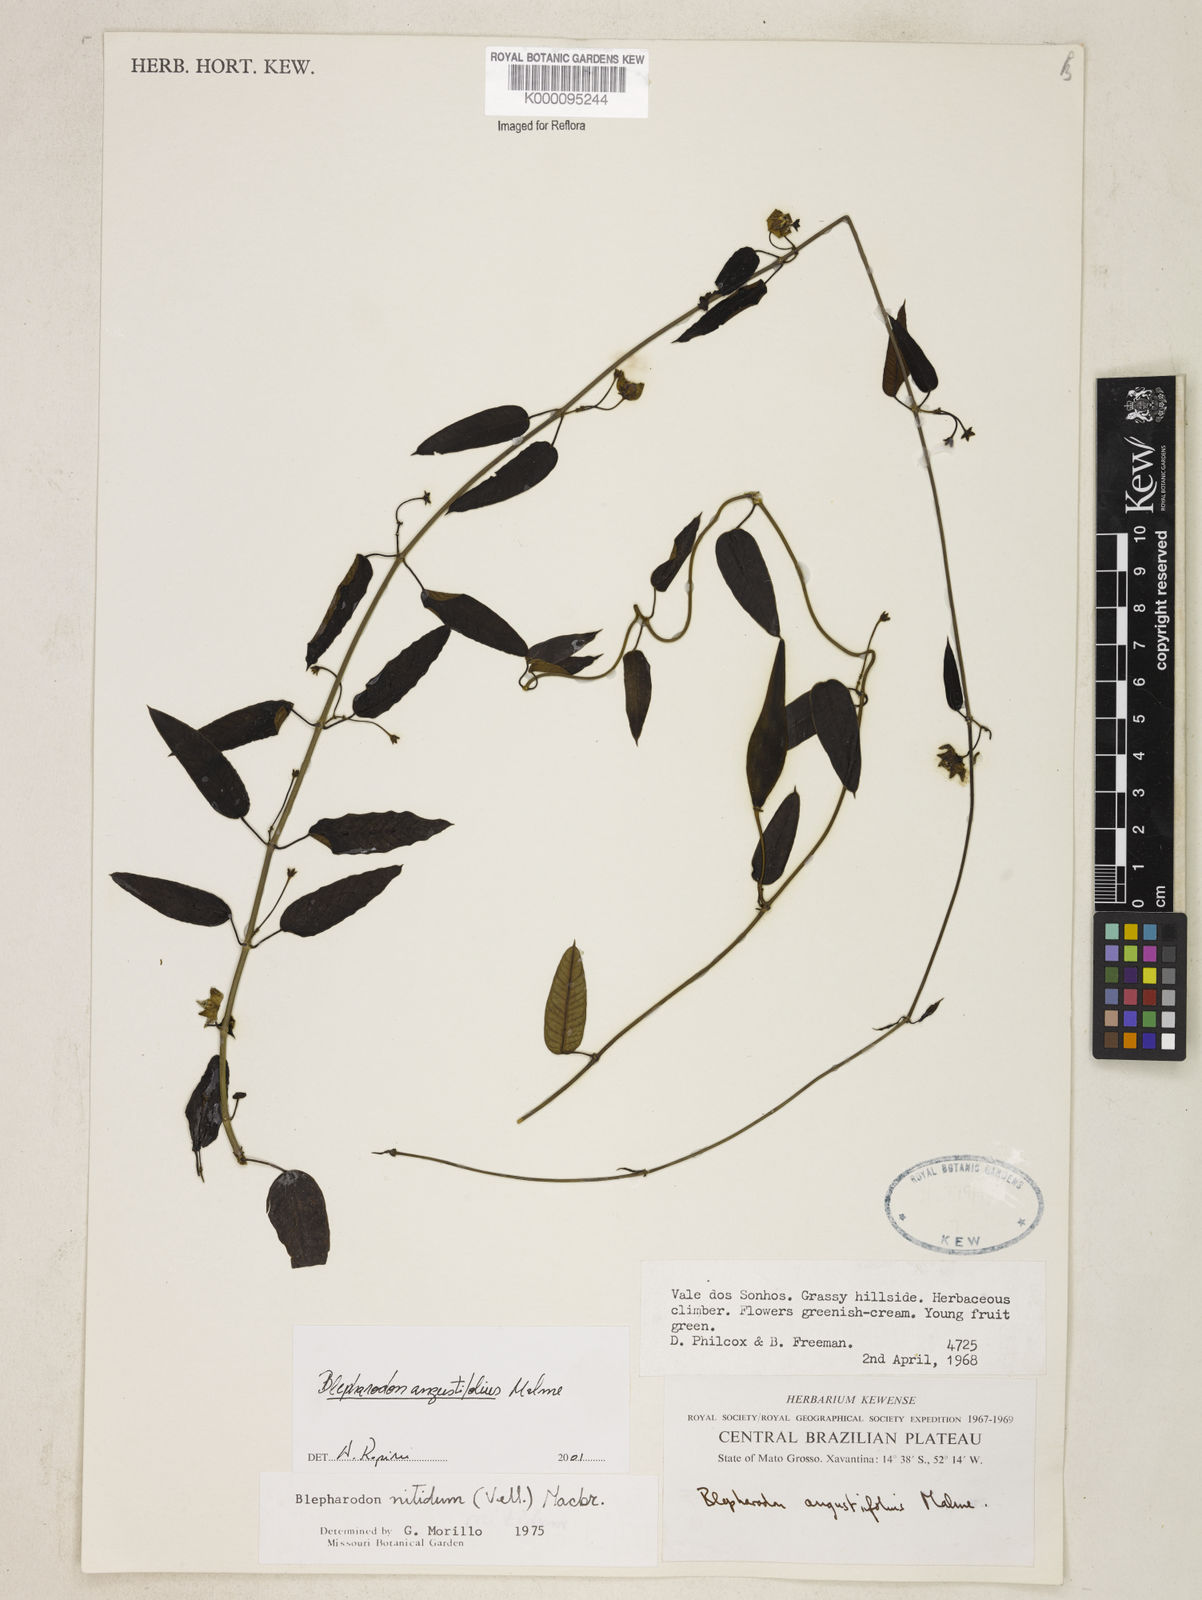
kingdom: Plantae
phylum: Tracheophyta
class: Magnoliopsida
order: Gentianales
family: Apocynaceae
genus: Blepharodon
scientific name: Blepharodon angustifolium
